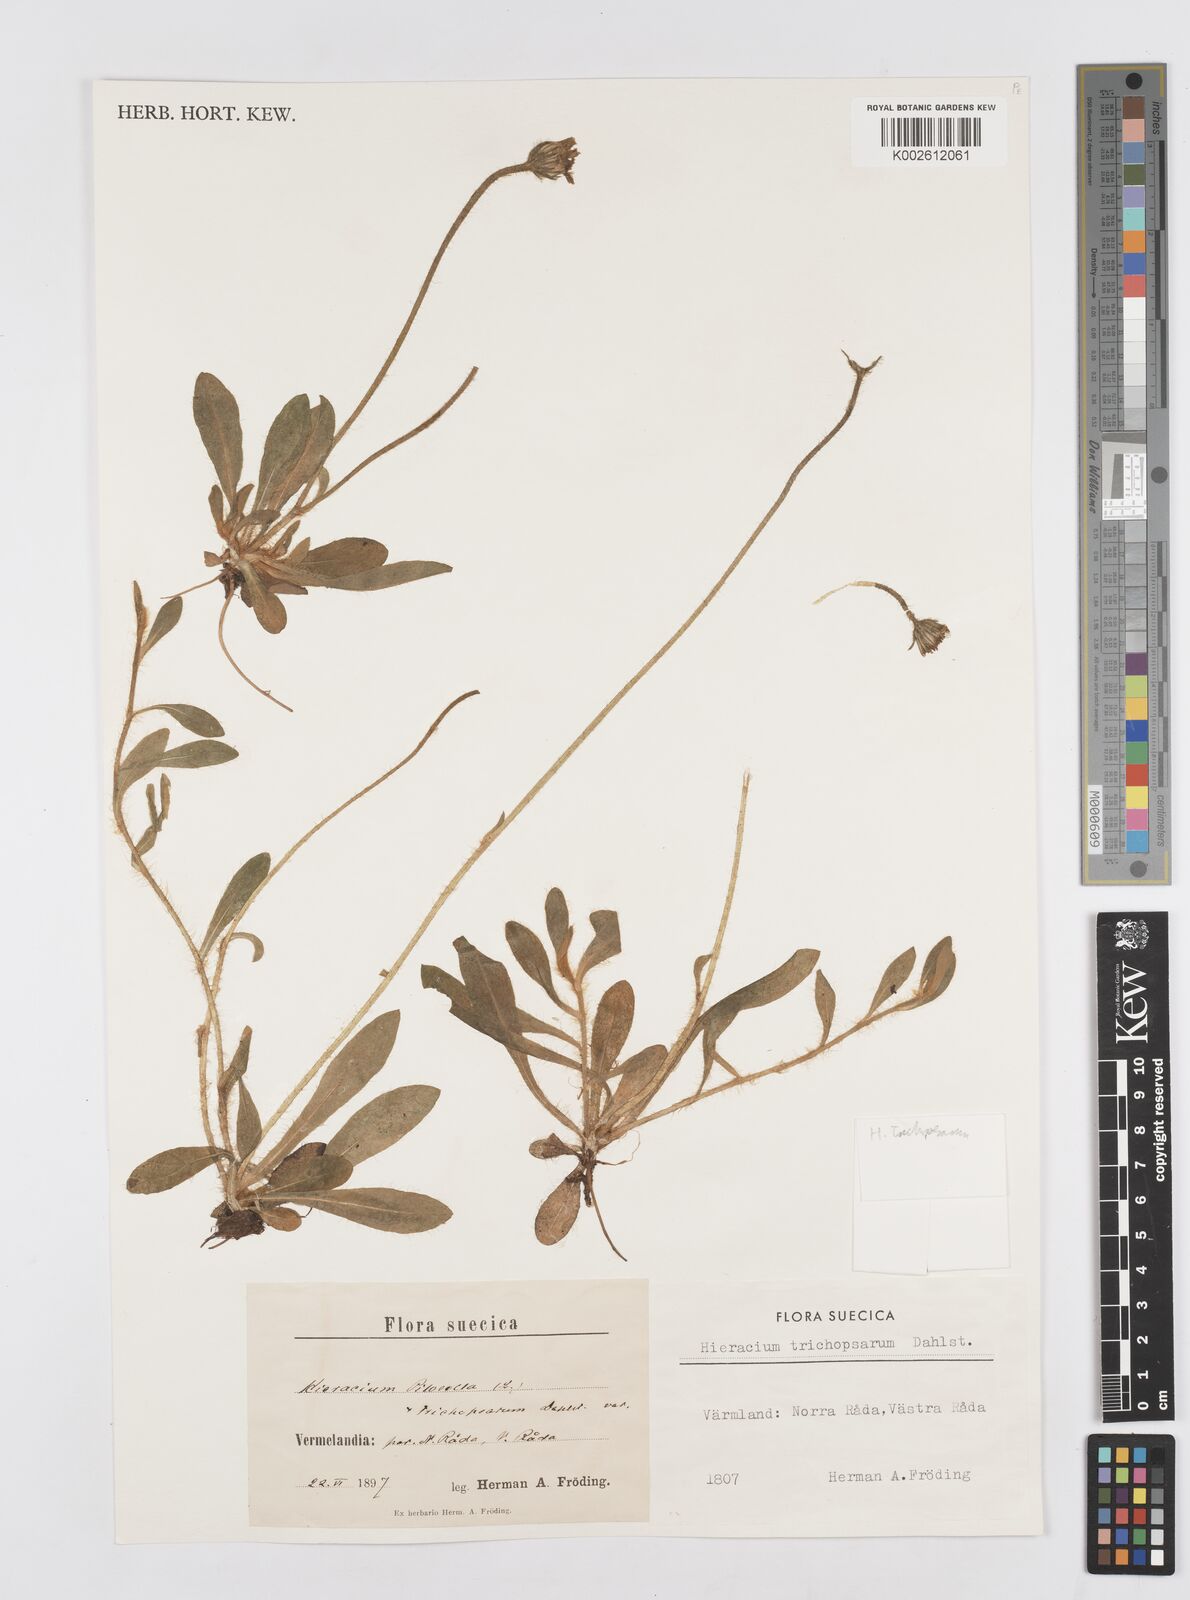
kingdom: Plantae
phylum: Tracheophyta
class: Magnoliopsida
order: Asterales
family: Asteraceae
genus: Hieracium
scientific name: Hieracium
